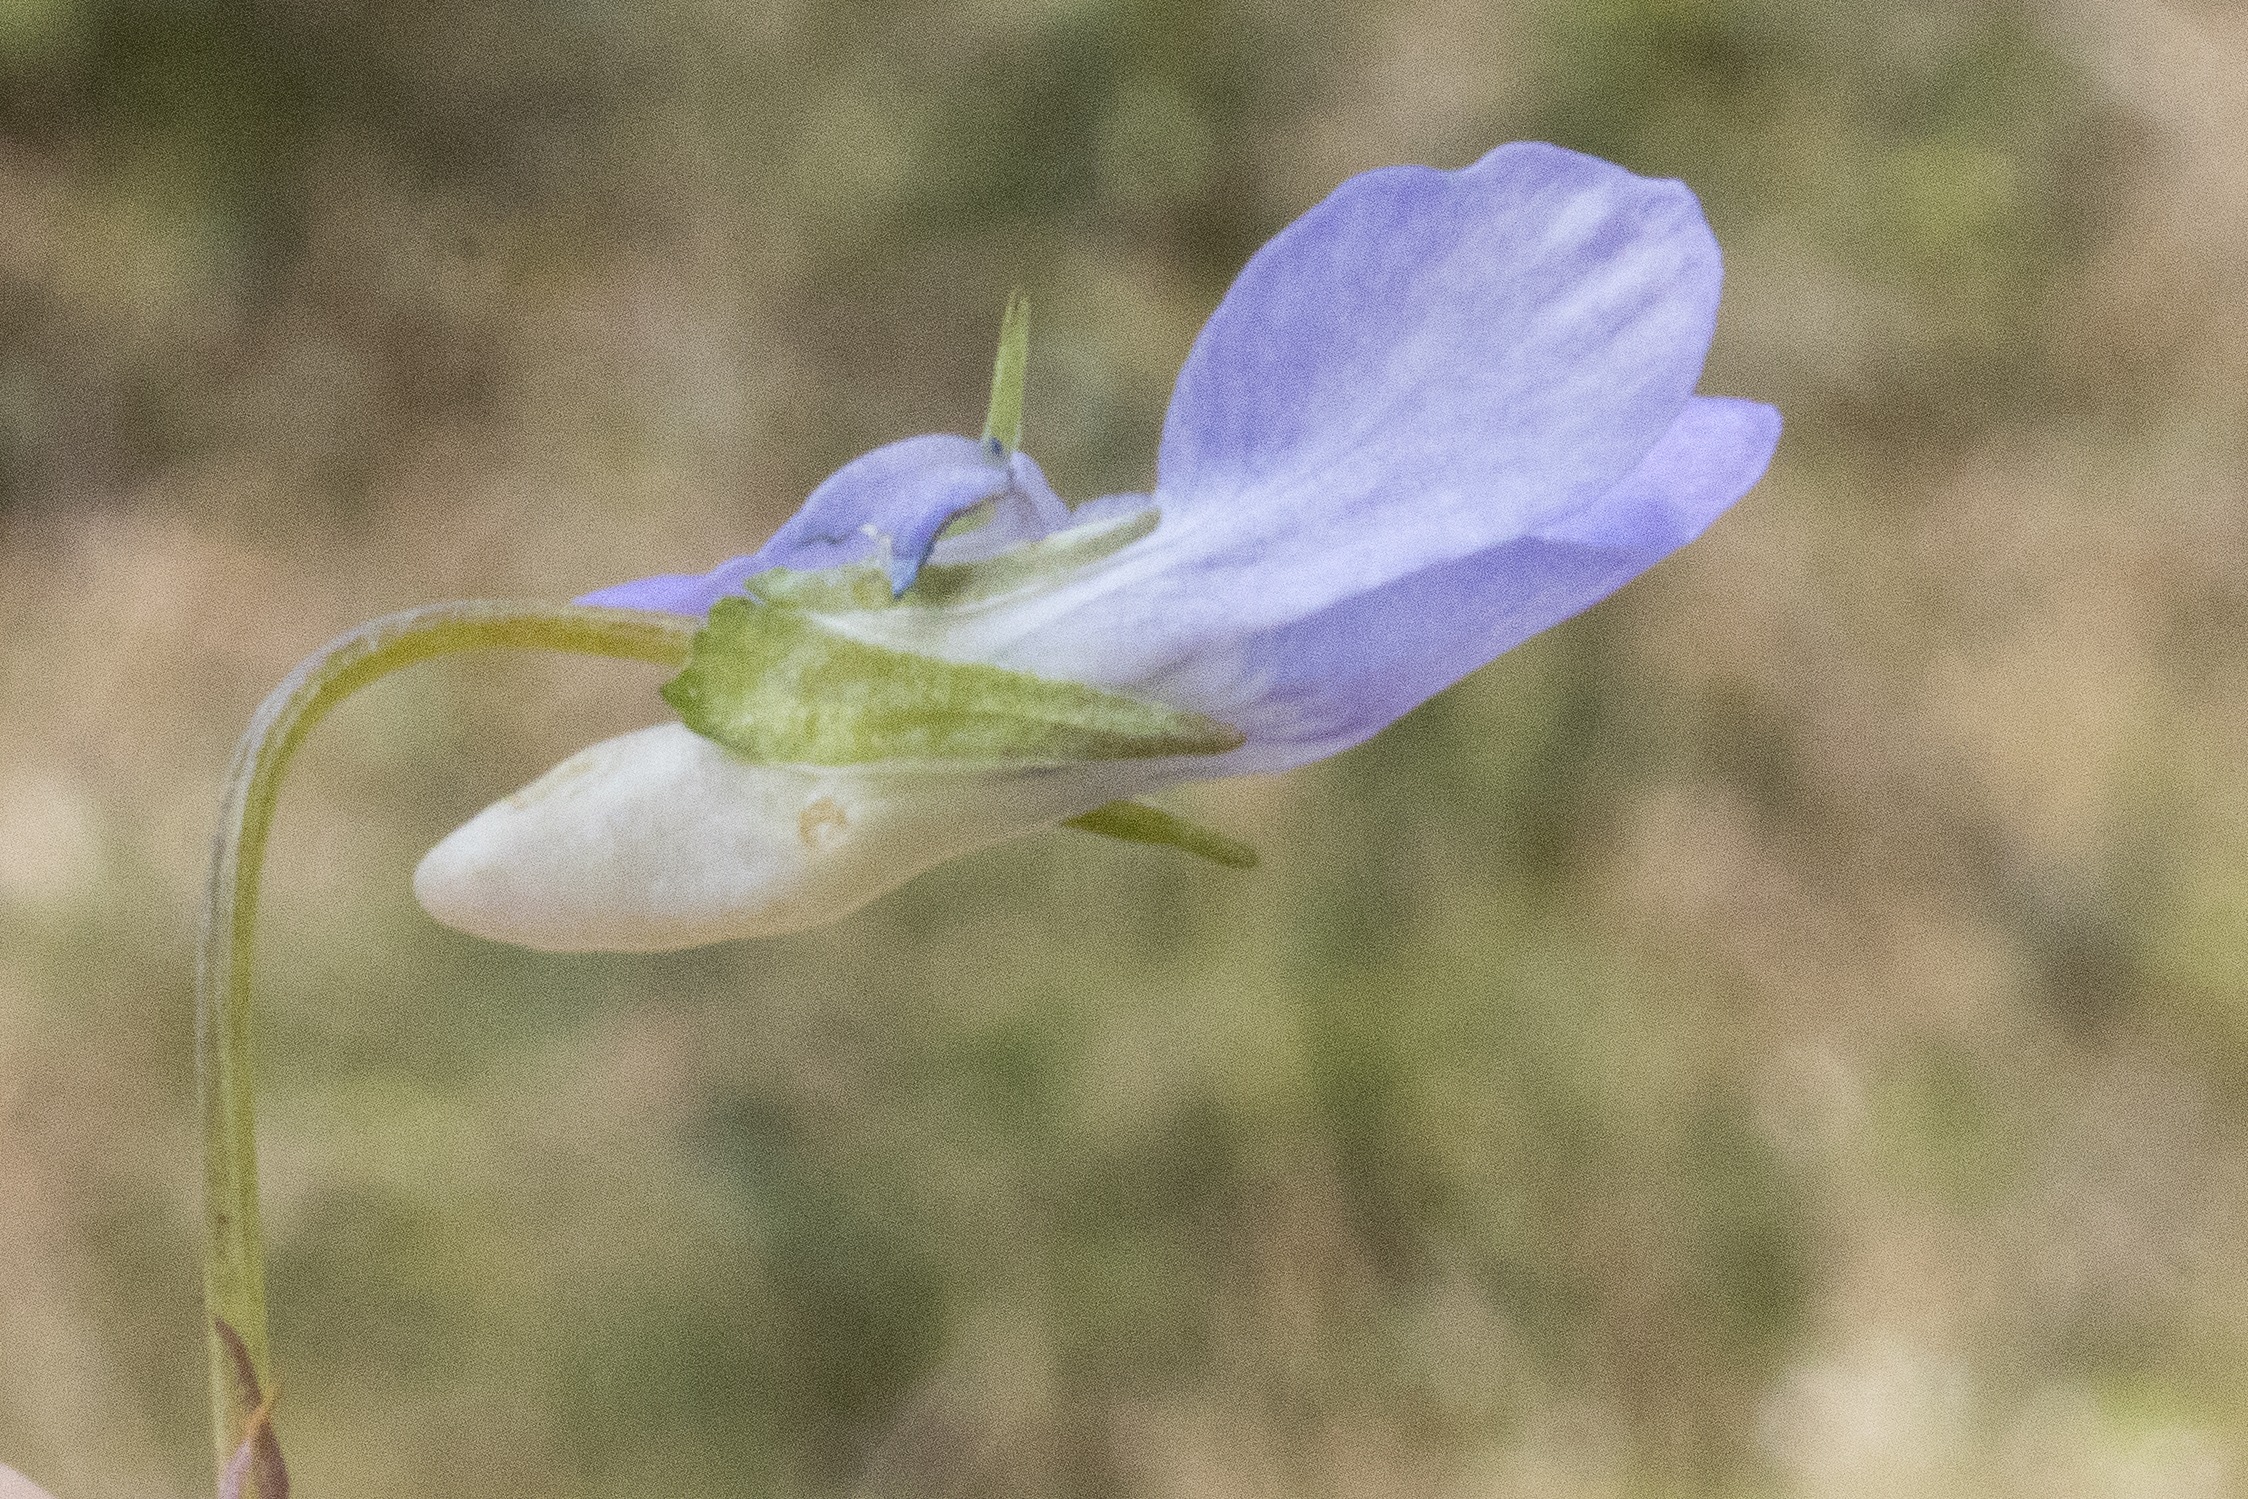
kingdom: Plantae
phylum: Tracheophyta
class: Magnoliopsida
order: Malpighiales
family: Violaceae
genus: Viola
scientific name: Viola riviniana
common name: Krat-viol
